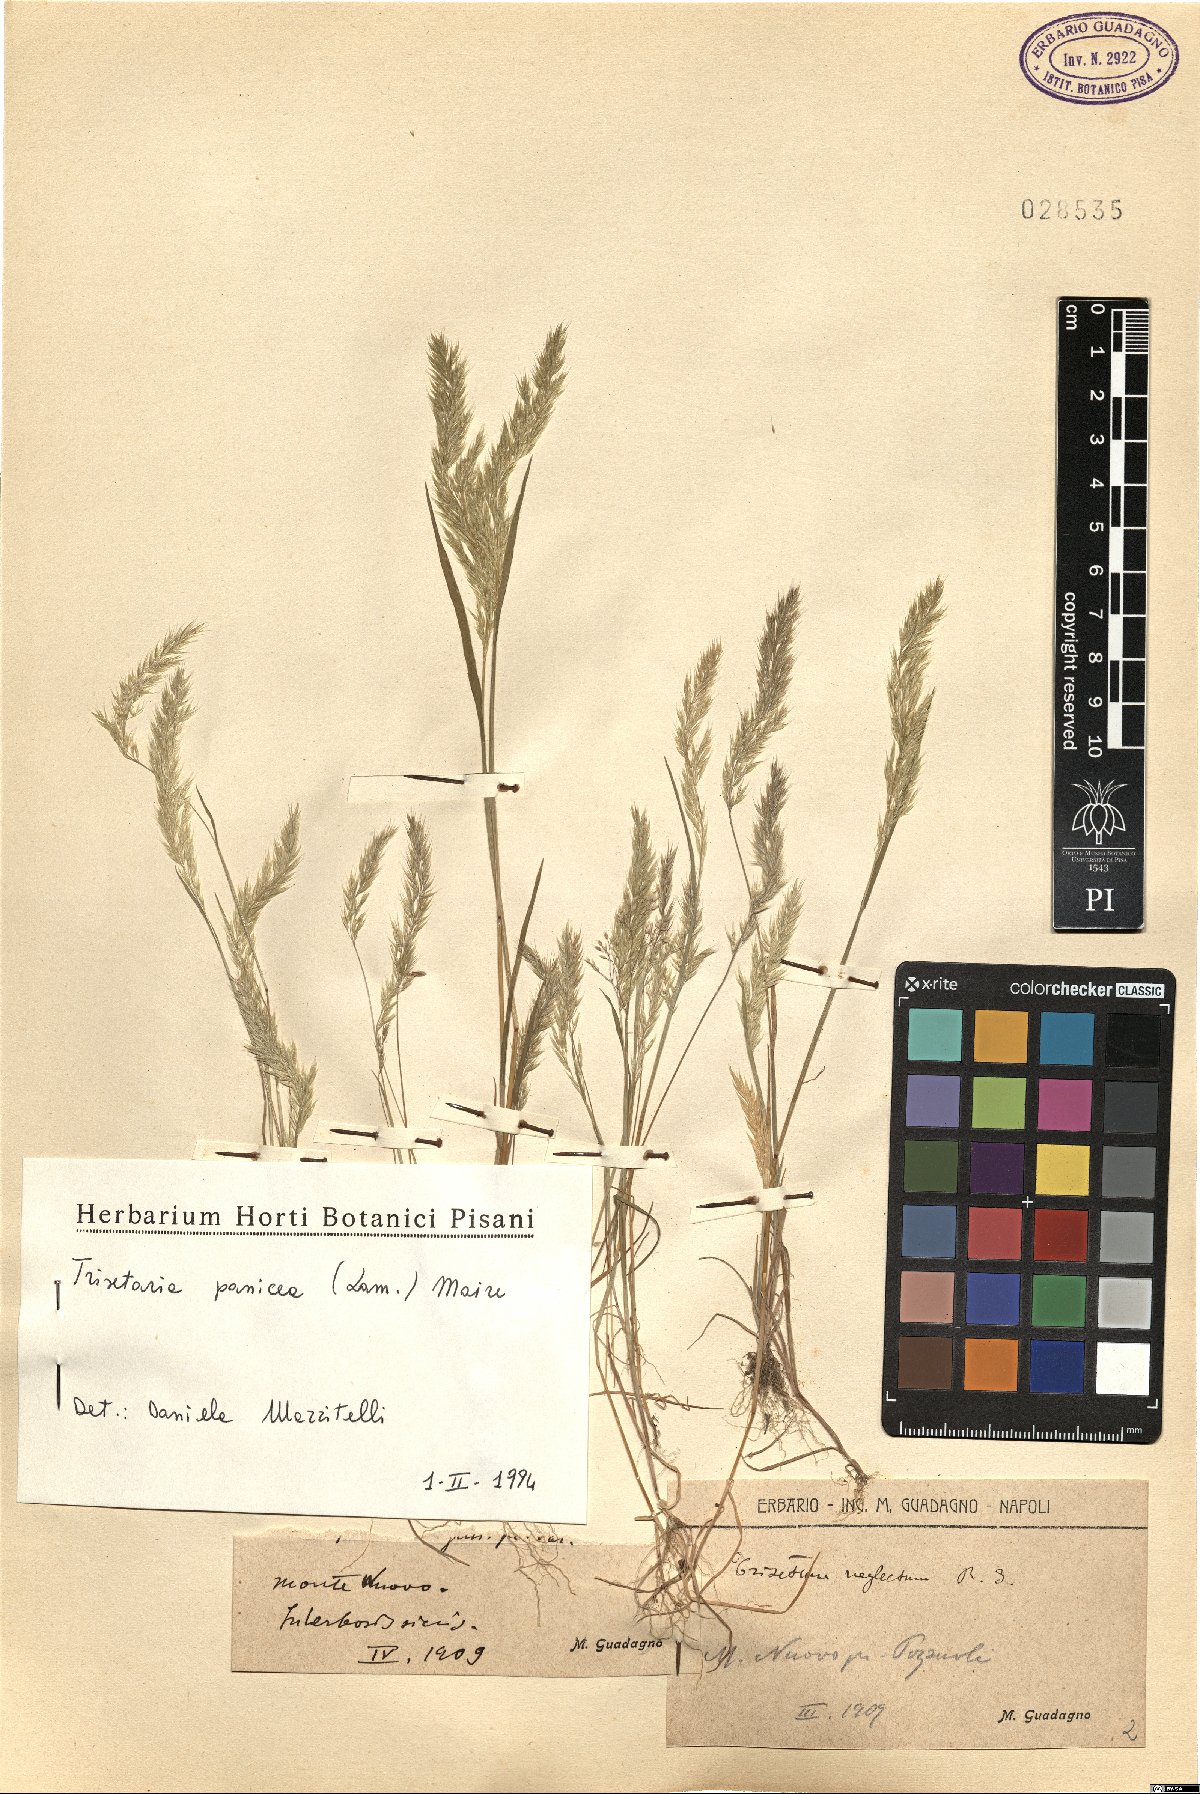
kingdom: Plantae
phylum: Tracheophyta
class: Liliopsida
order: Poales
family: Poaceae
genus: Trisetaria
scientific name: Trisetaria panicea
